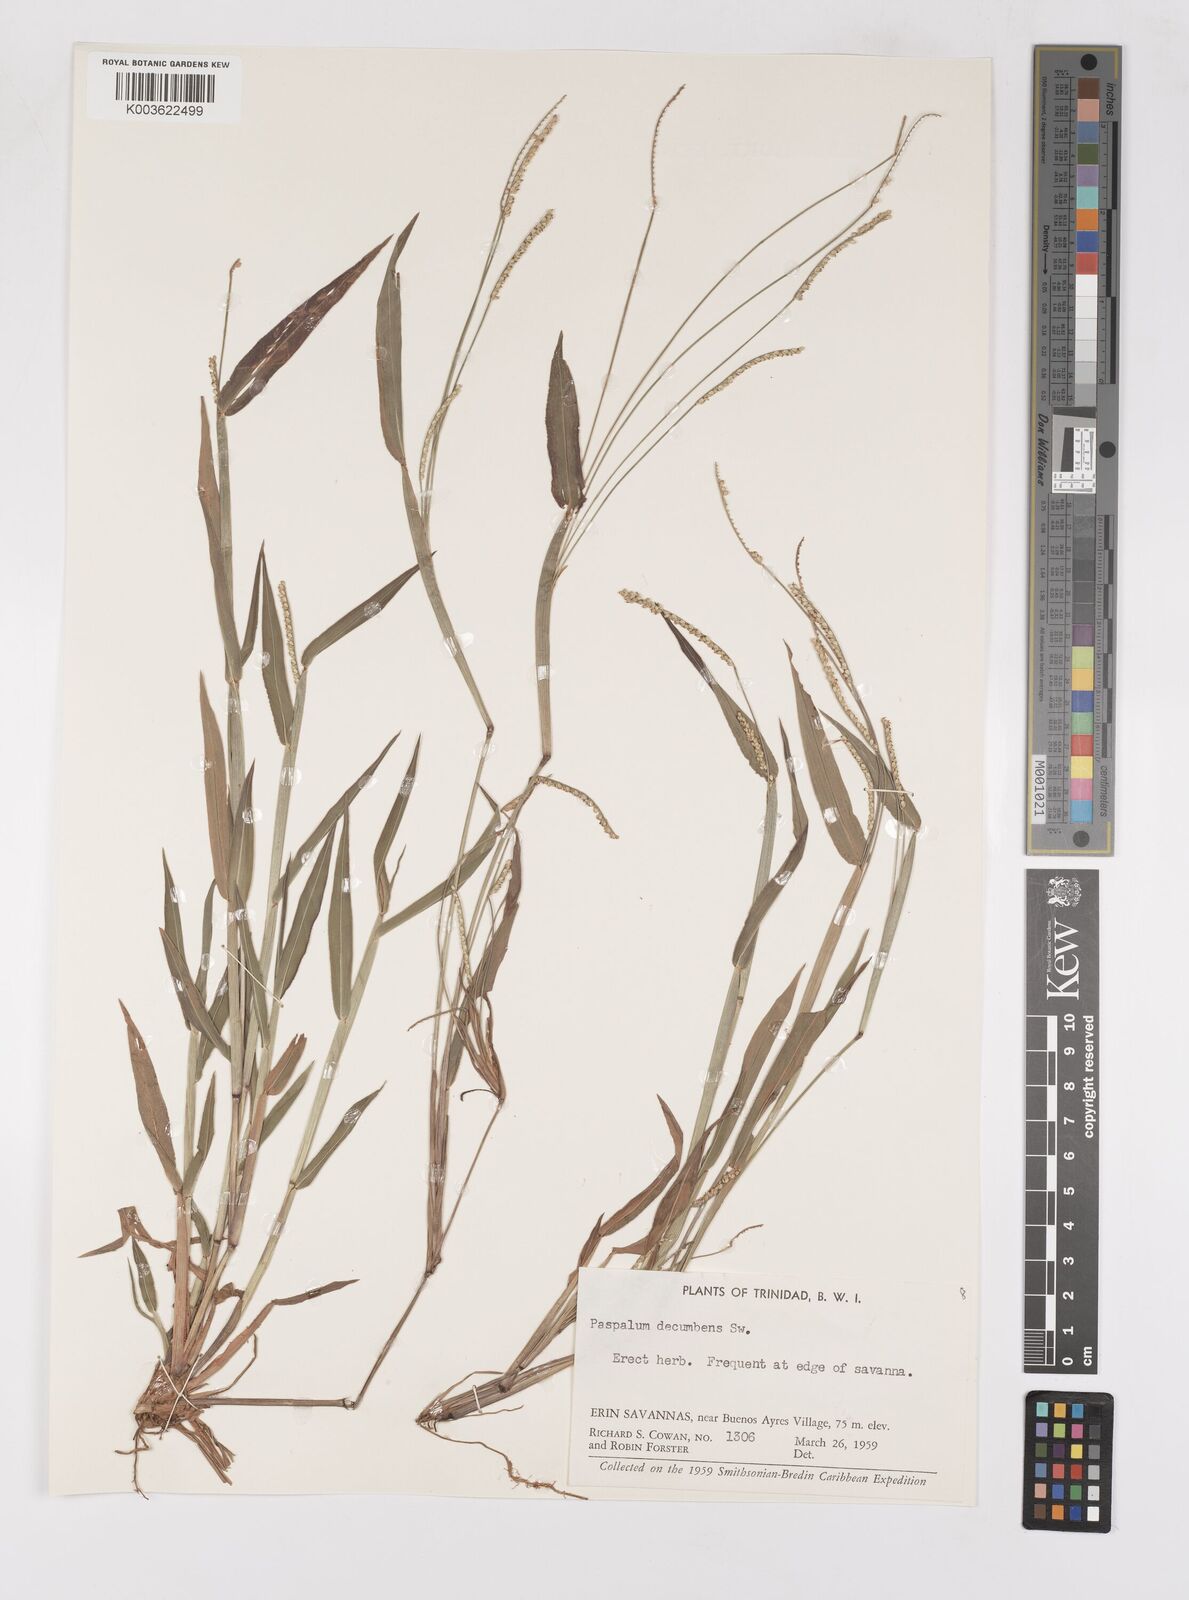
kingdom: Plantae
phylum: Tracheophyta
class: Liliopsida
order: Poales
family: Poaceae
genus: Paspalum
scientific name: Paspalum decumbens
